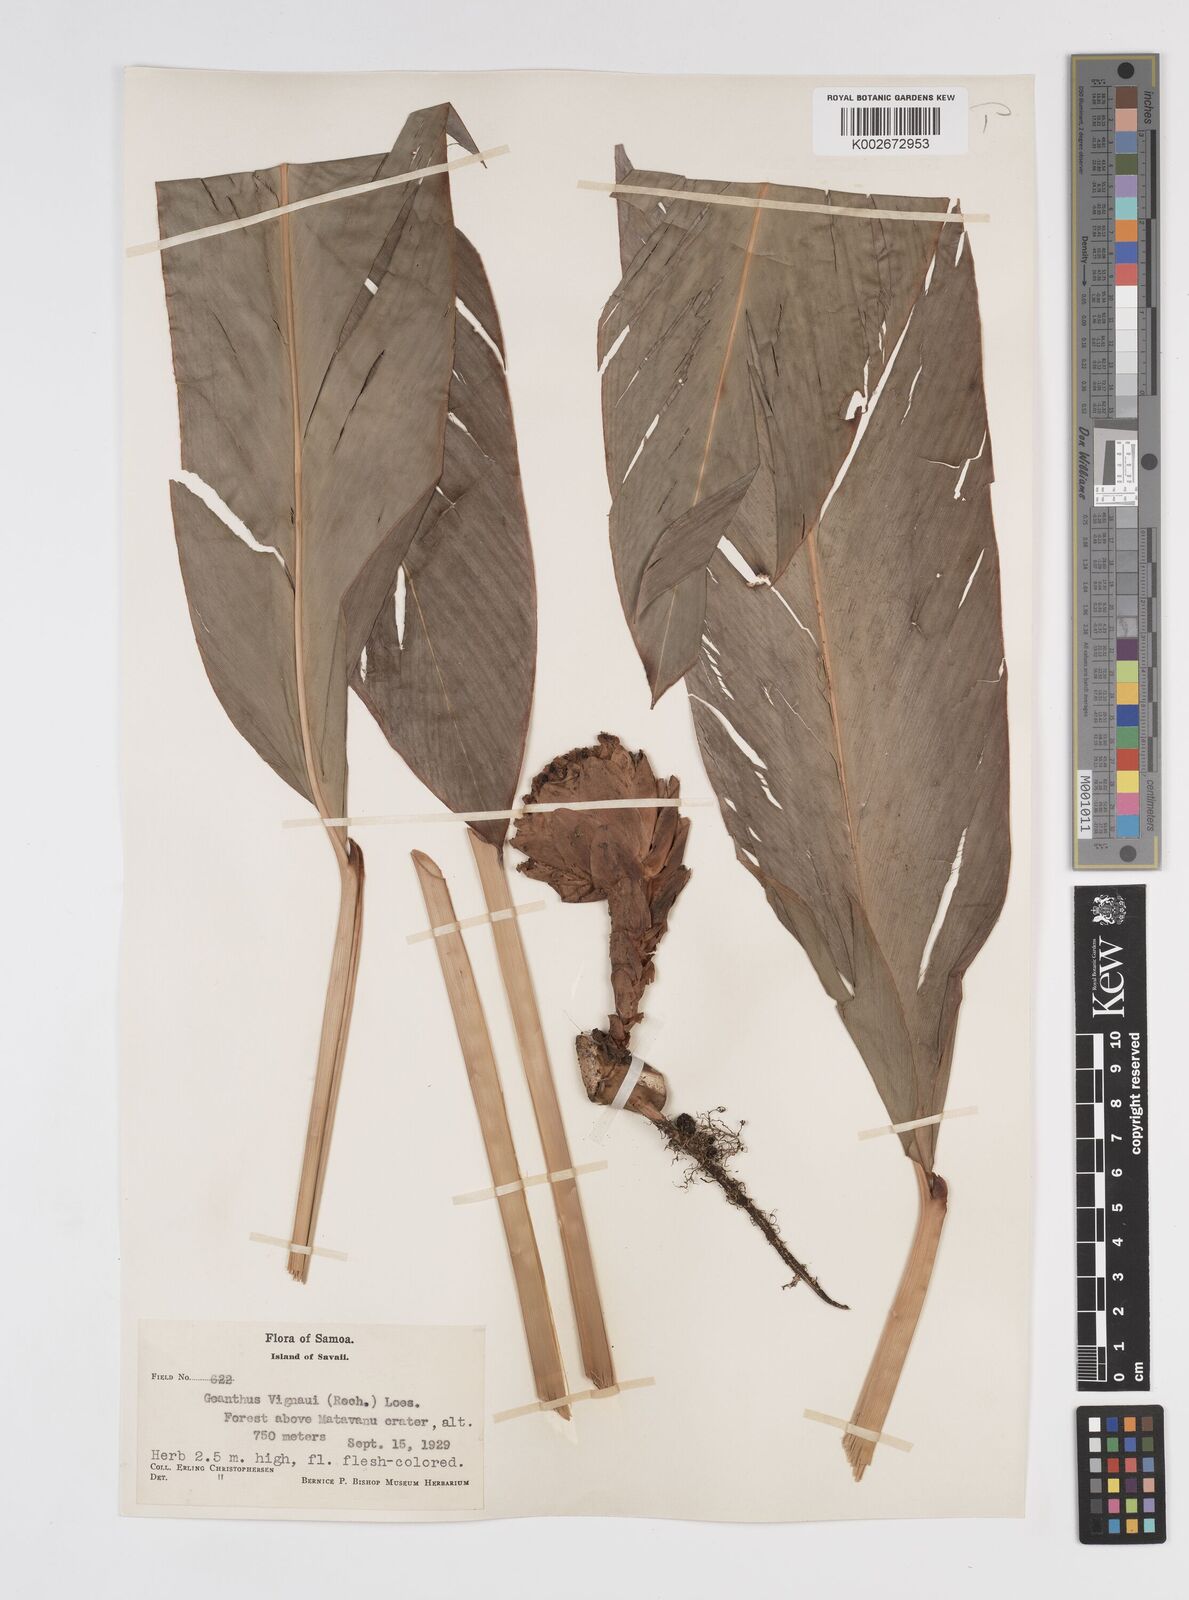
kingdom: Plantae
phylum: Tracheophyta
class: Liliopsida
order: Zingiberales
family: Zingiberaceae
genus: Etlingera
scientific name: Etlingera cevuga
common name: Waxflower
